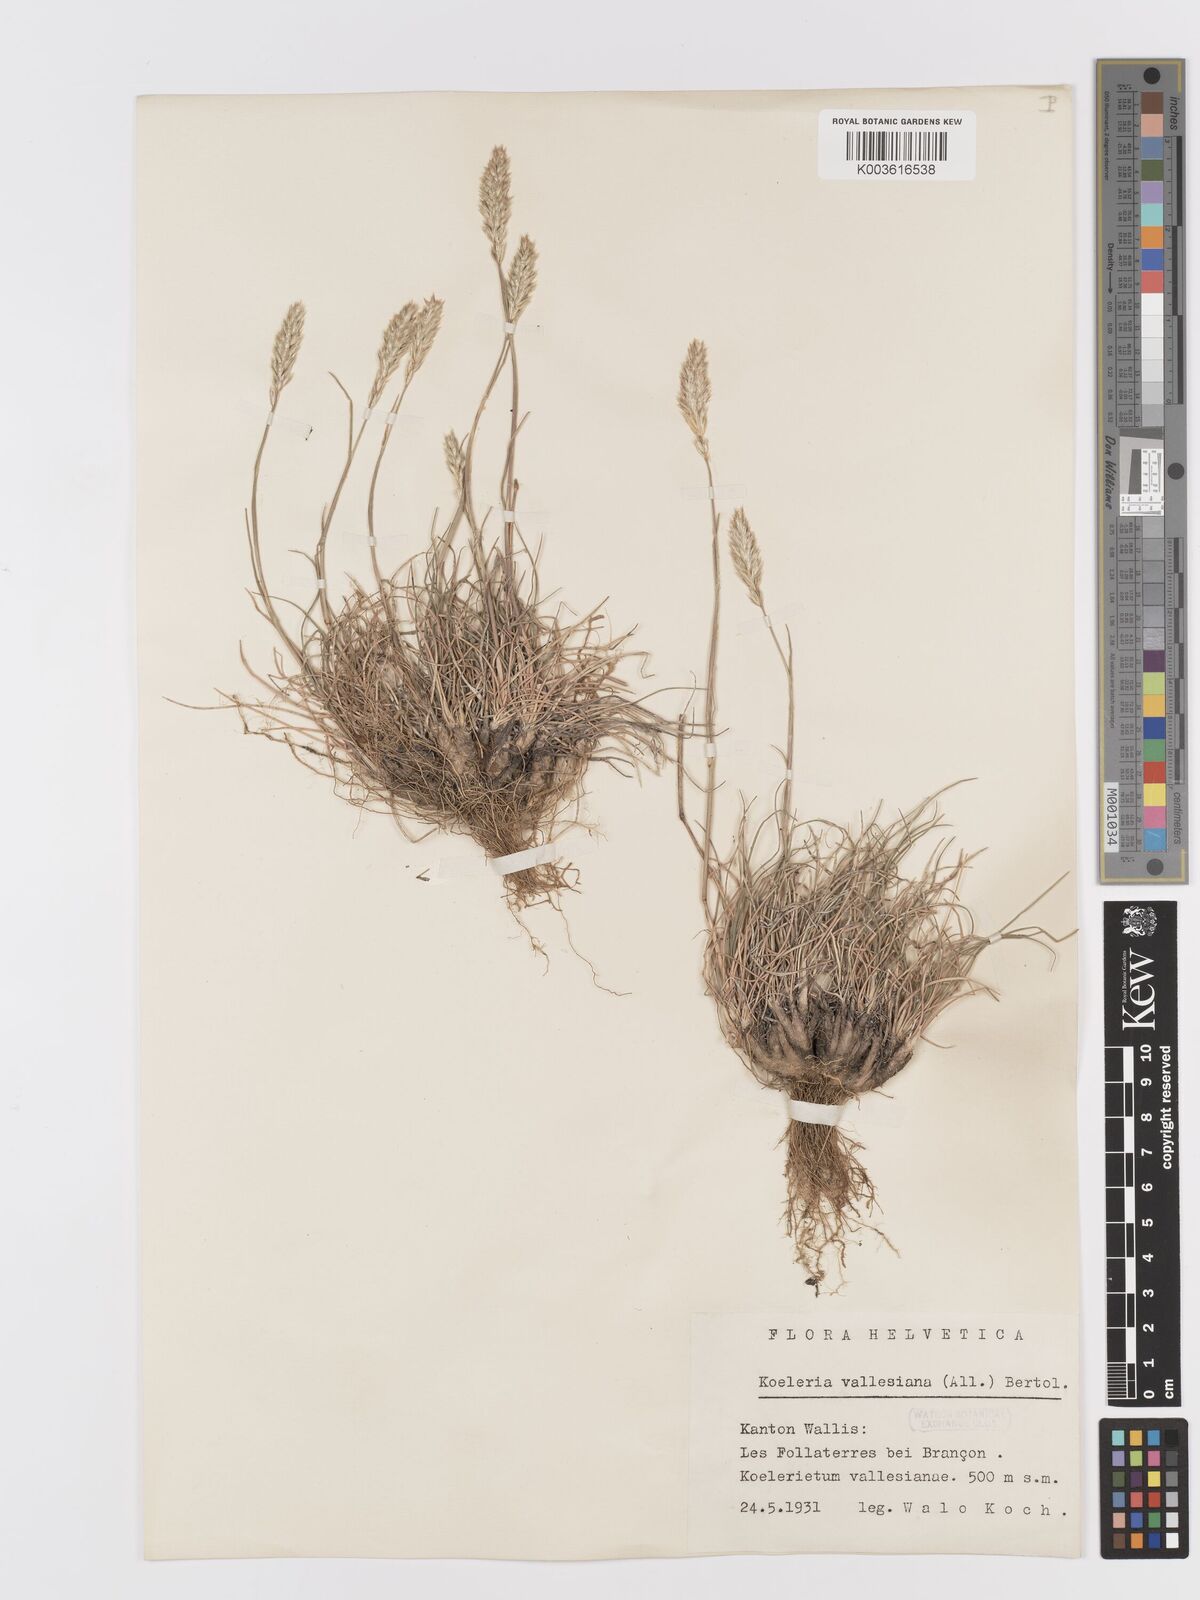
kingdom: Plantae
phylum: Tracheophyta
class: Liliopsida
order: Poales
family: Poaceae
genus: Koeleria
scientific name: Koeleria vallesiana
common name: Somerset hair-grass
